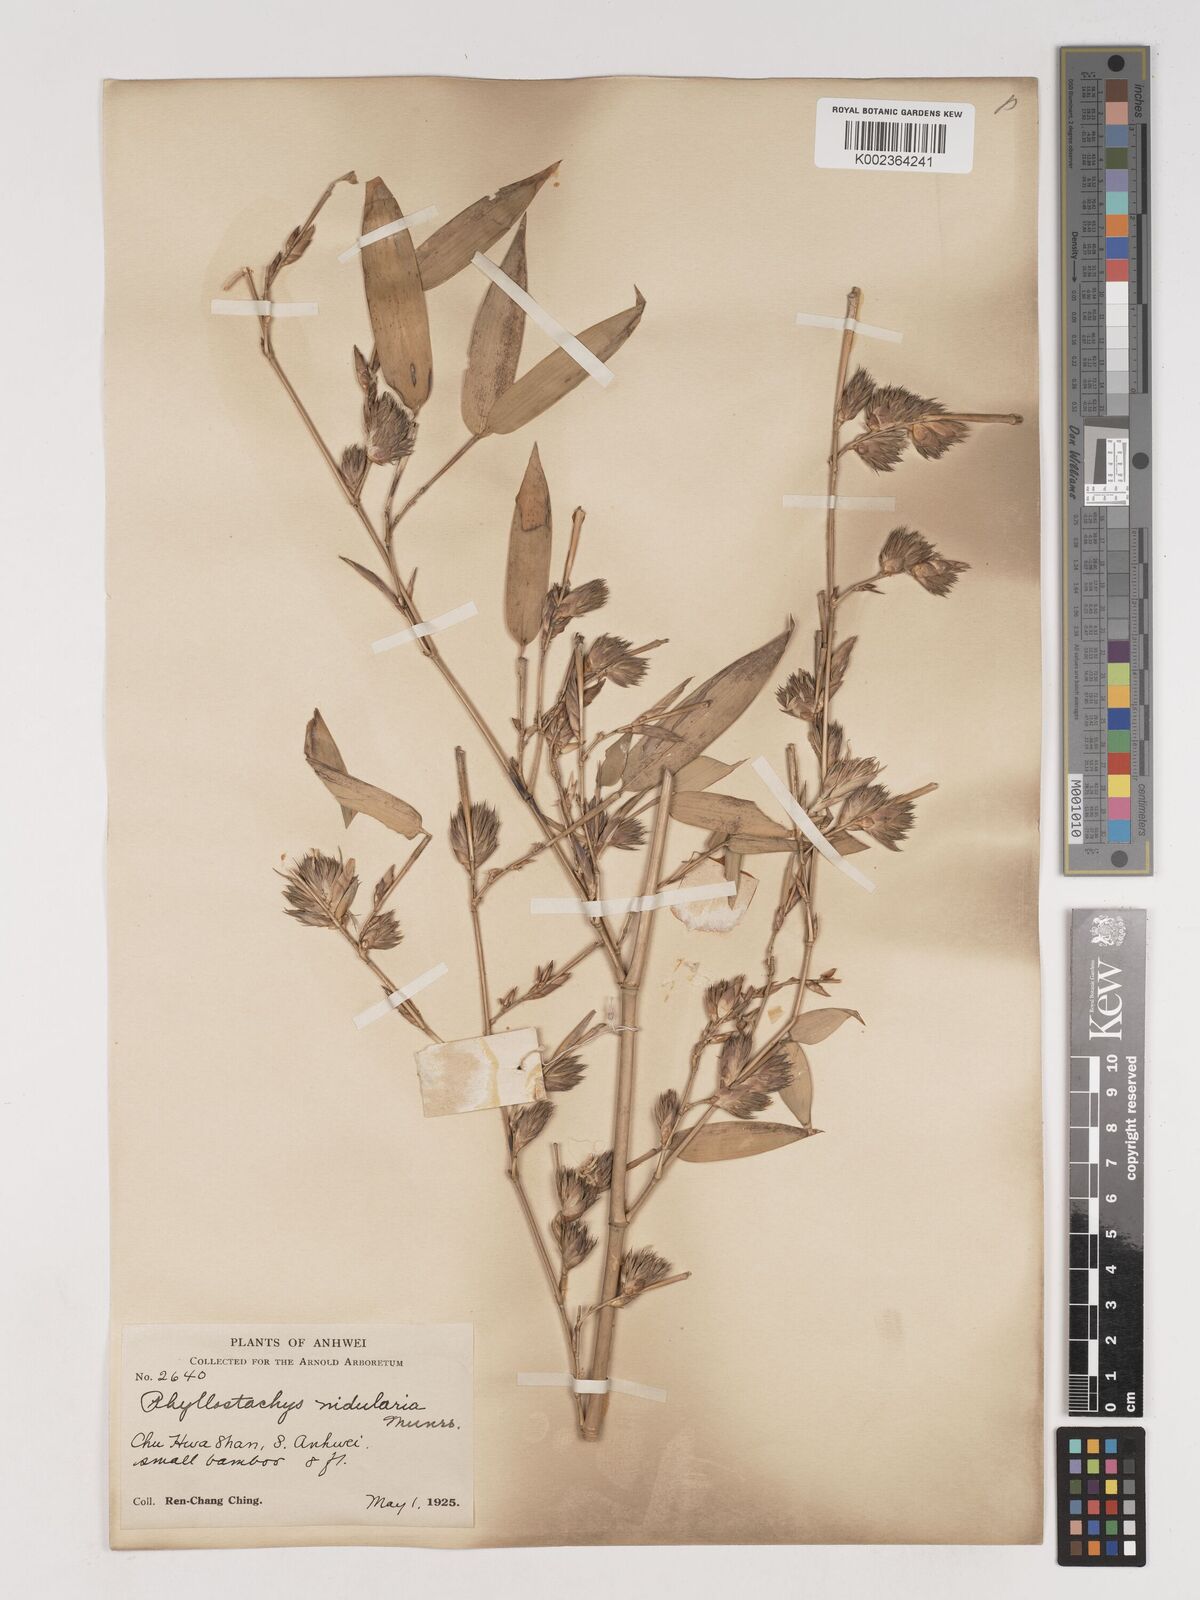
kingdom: Plantae
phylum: Tracheophyta
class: Liliopsida
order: Poales
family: Poaceae
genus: Phyllostachys
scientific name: Phyllostachys nidularia
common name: Broom bamboo
